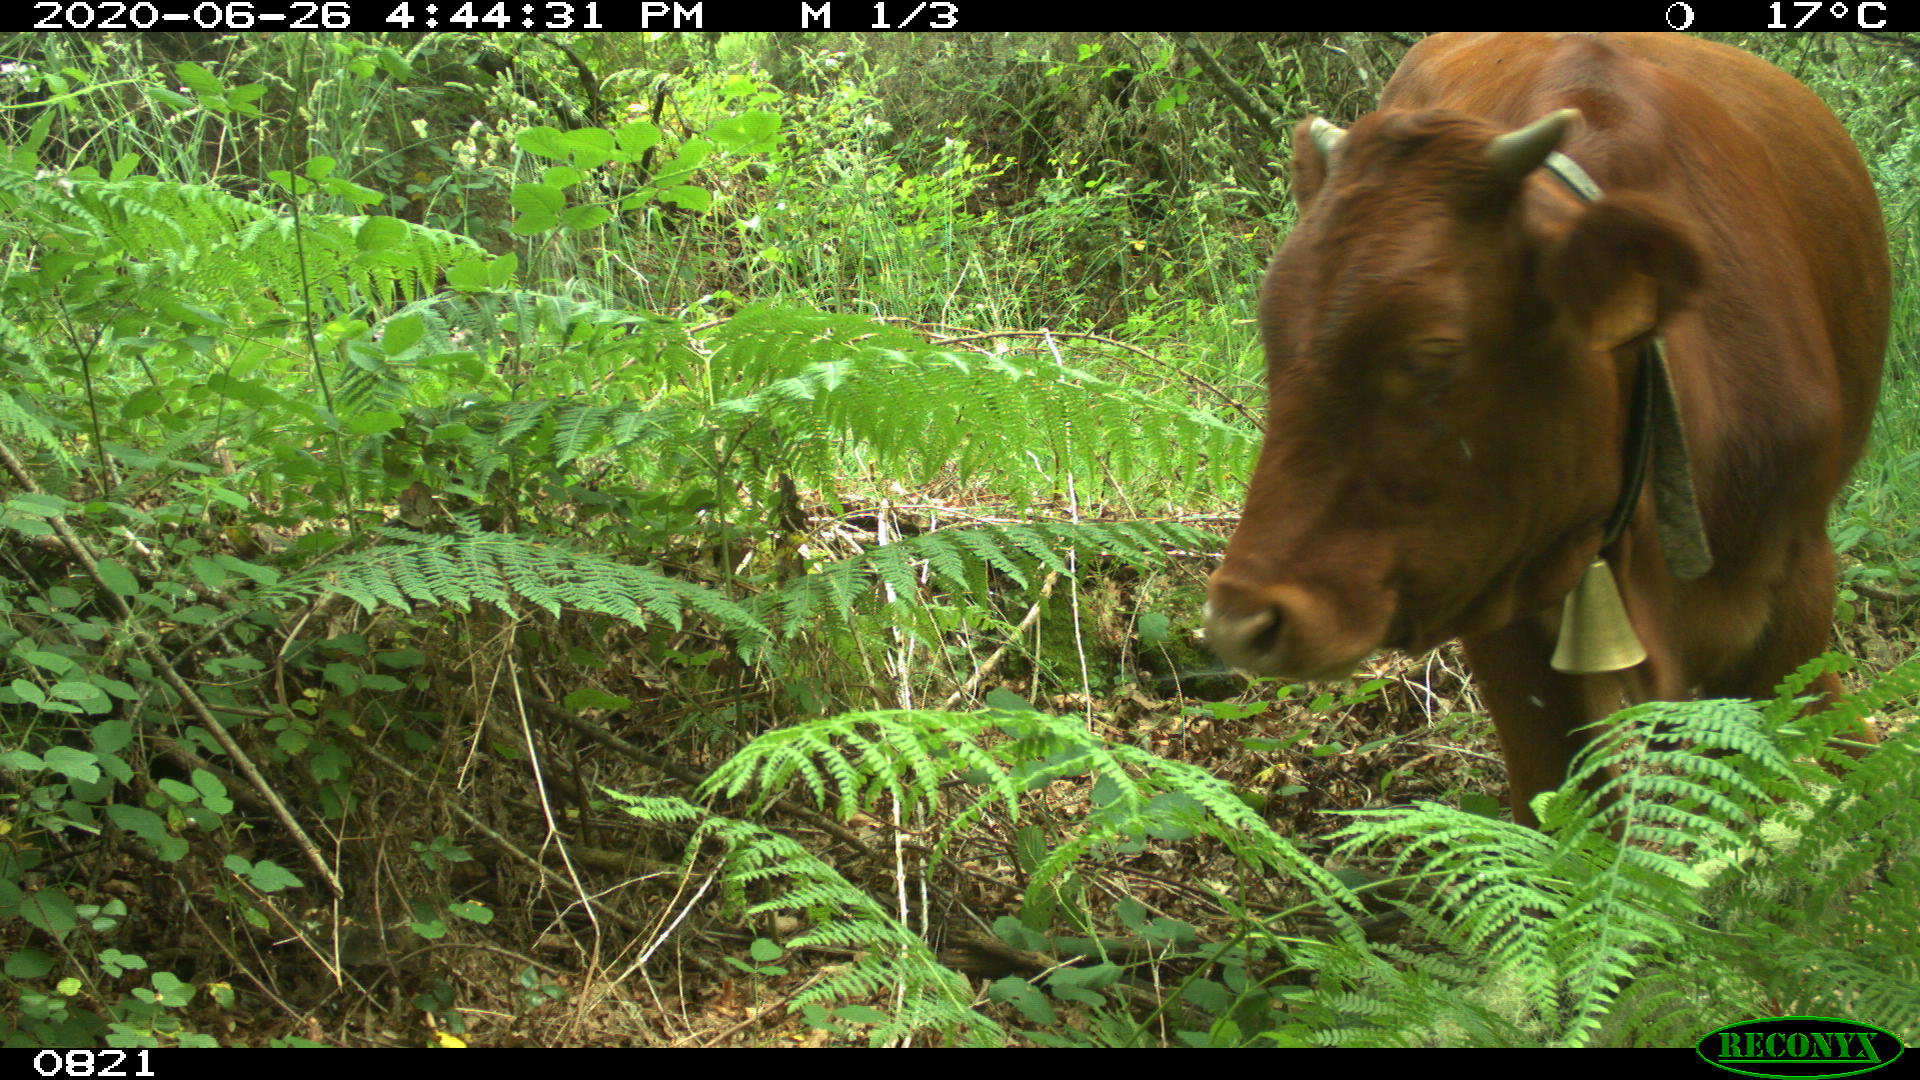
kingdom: Animalia
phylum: Chordata
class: Mammalia
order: Artiodactyla
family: Bovidae
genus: Bos
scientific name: Bos taurus
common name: Domesticated cattle
